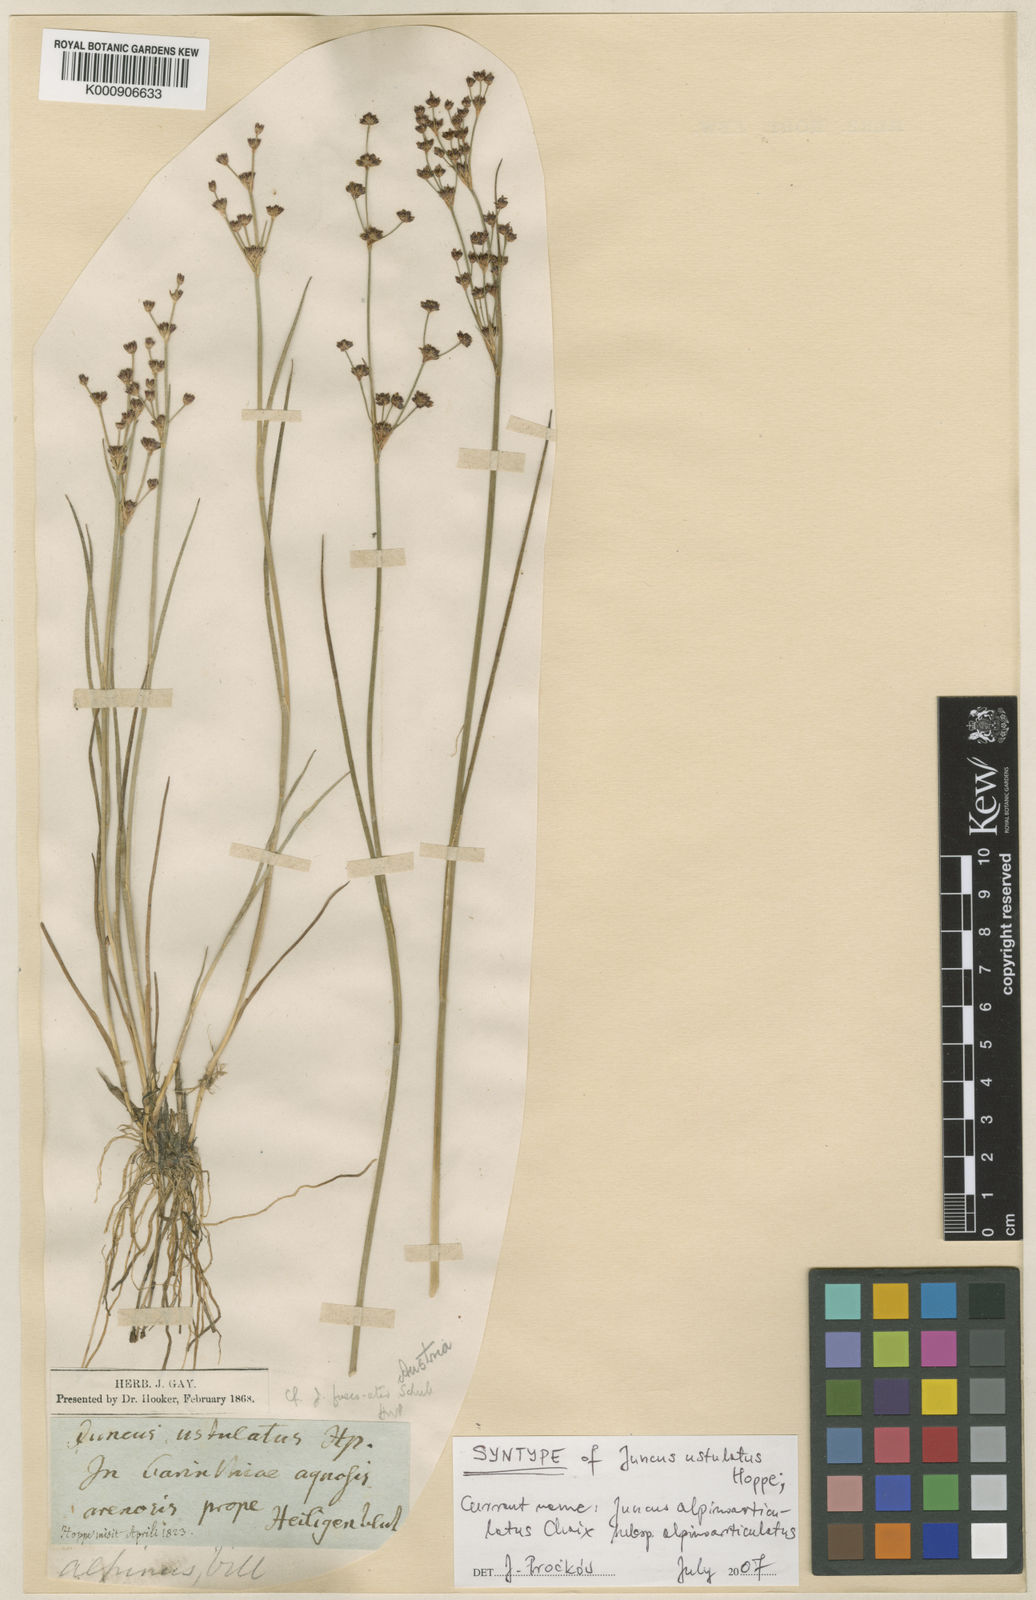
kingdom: Plantae
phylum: Tracheophyta
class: Liliopsida
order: Poales
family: Juncaceae
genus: Juncus
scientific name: Juncus alpinoarticulatus
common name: Alpine rush
